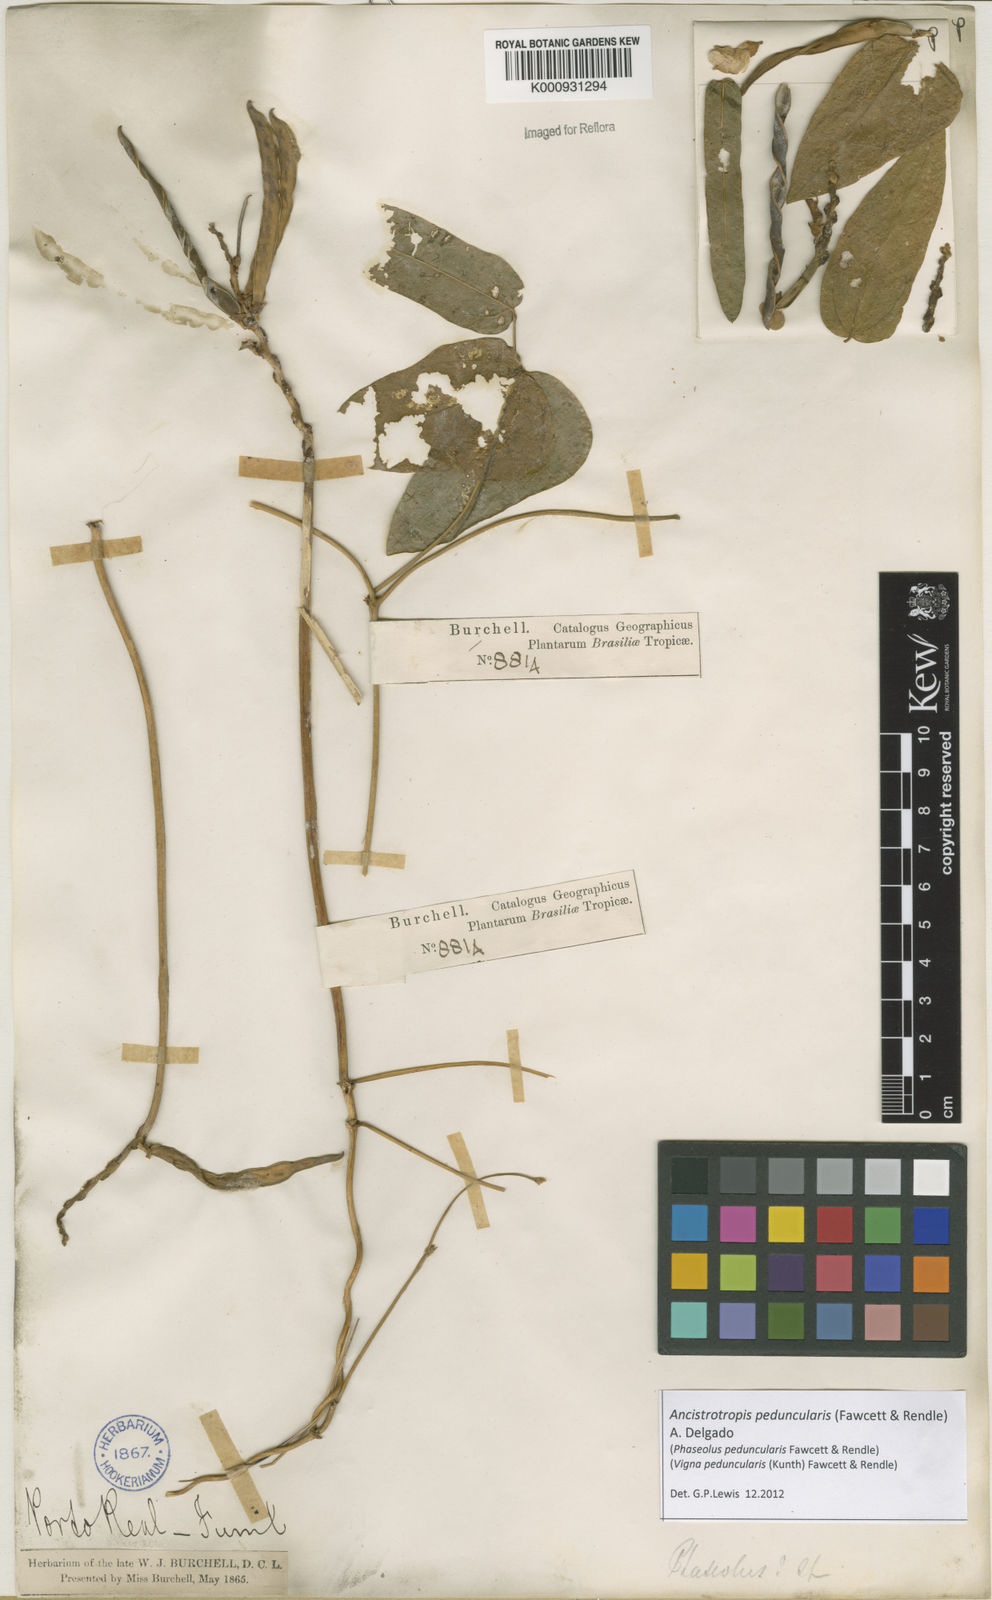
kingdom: Plantae
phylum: Tracheophyta
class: Magnoliopsida
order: Fabales
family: Fabaceae
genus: Ancistrotropis
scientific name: Ancistrotropis peduncularis
